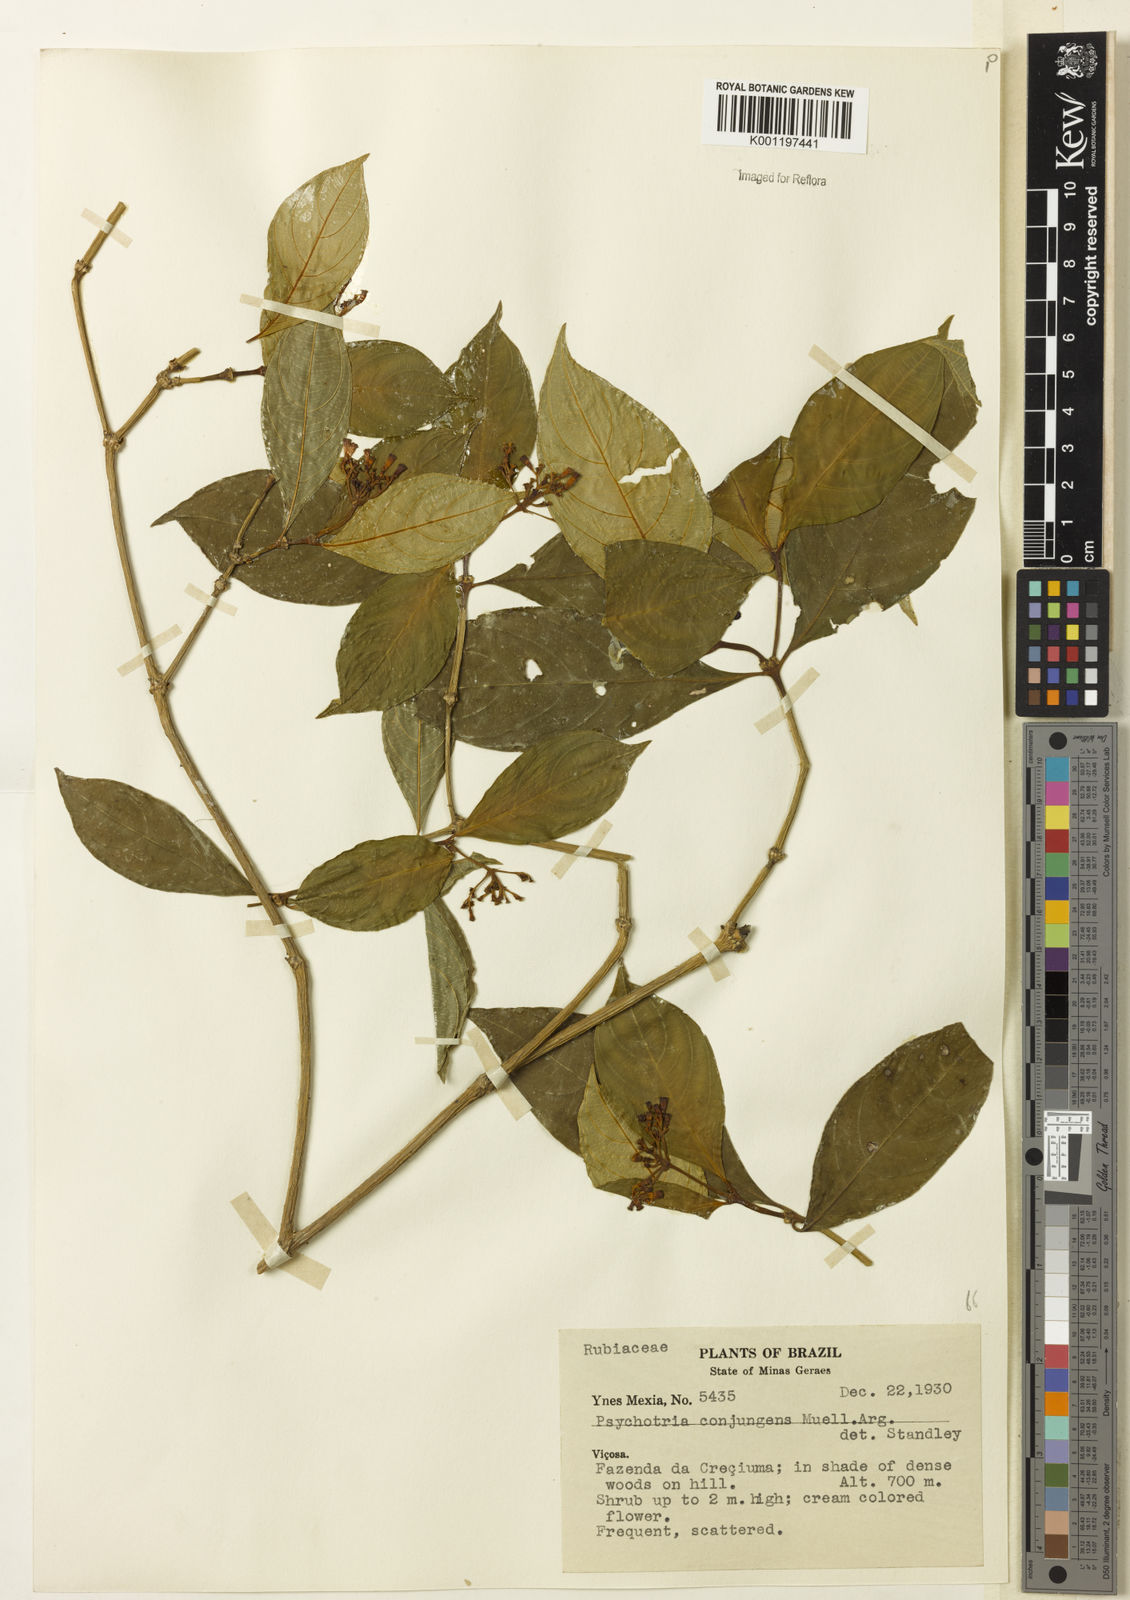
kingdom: Plantae
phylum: Tracheophyta
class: Magnoliopsida
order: Gentianales
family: Rubiaceae
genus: Psychotria
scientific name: Psychotria
